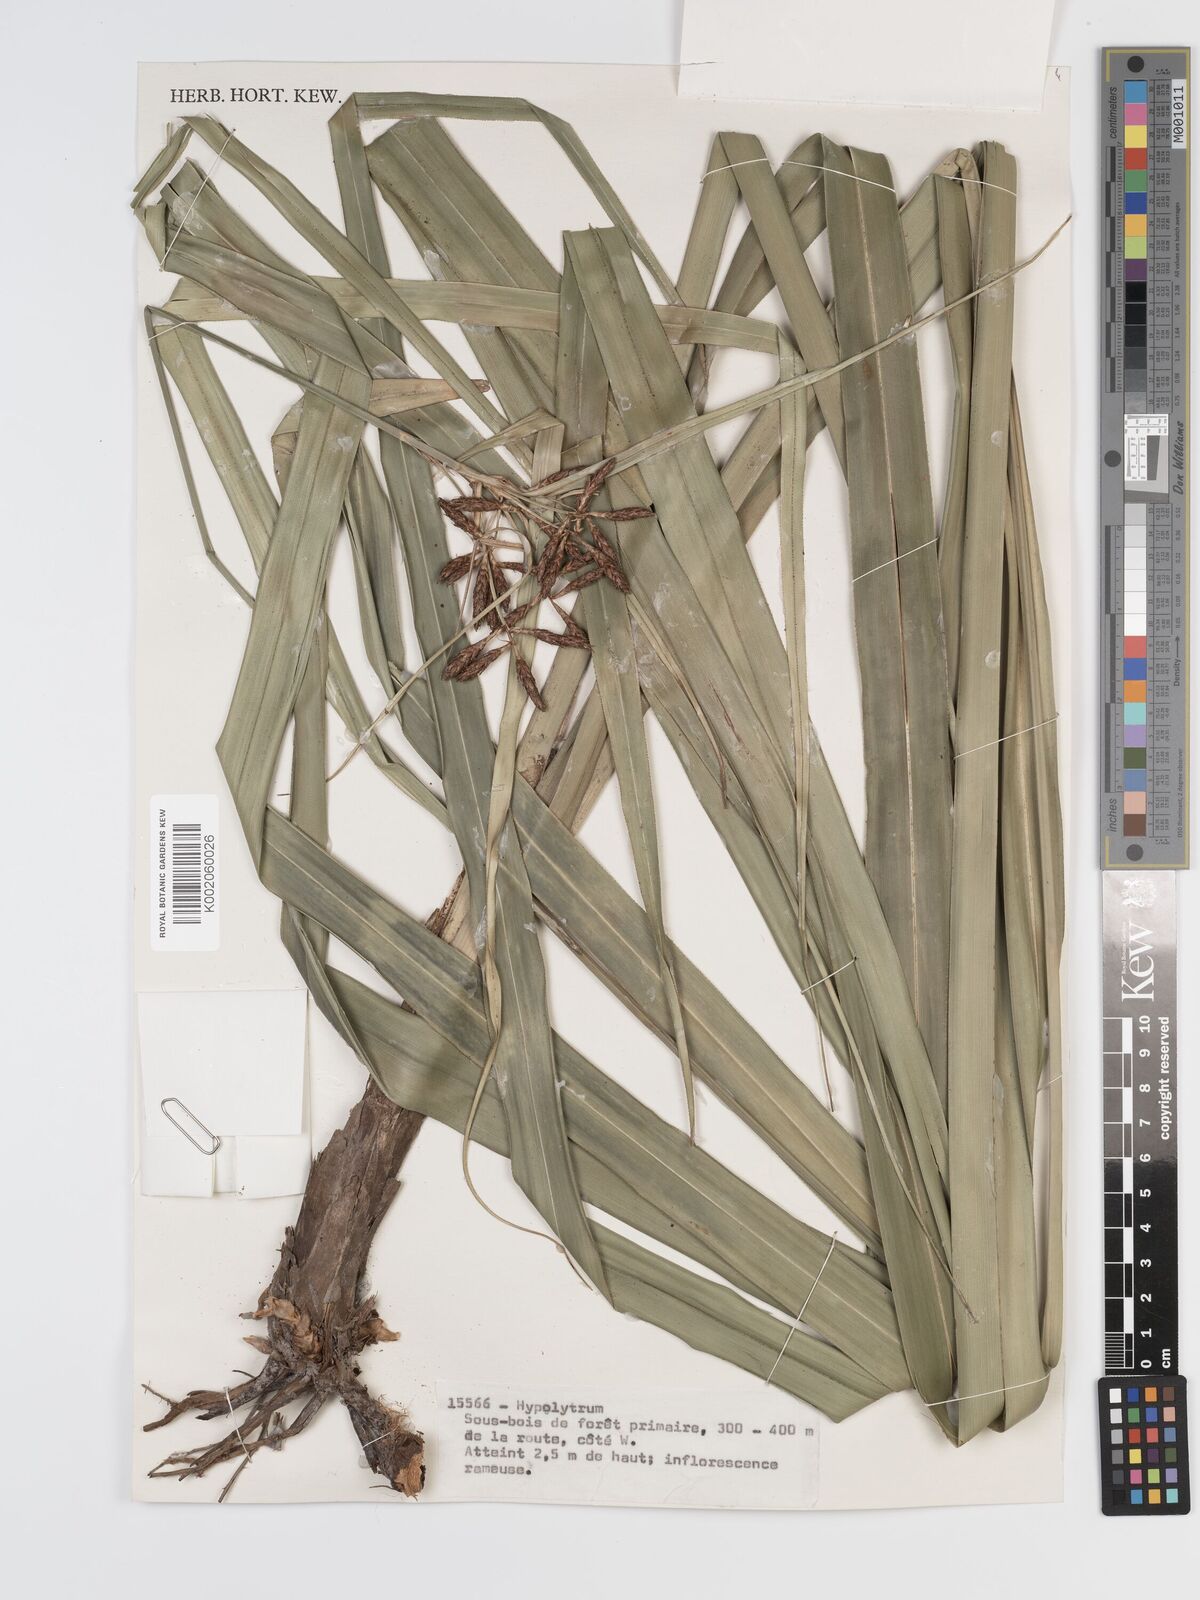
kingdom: Plantae
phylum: Tracheophyta
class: Liliopsida
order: Poales
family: Cyperaceae
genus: Diplasia
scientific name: Diplasia karatifolia
